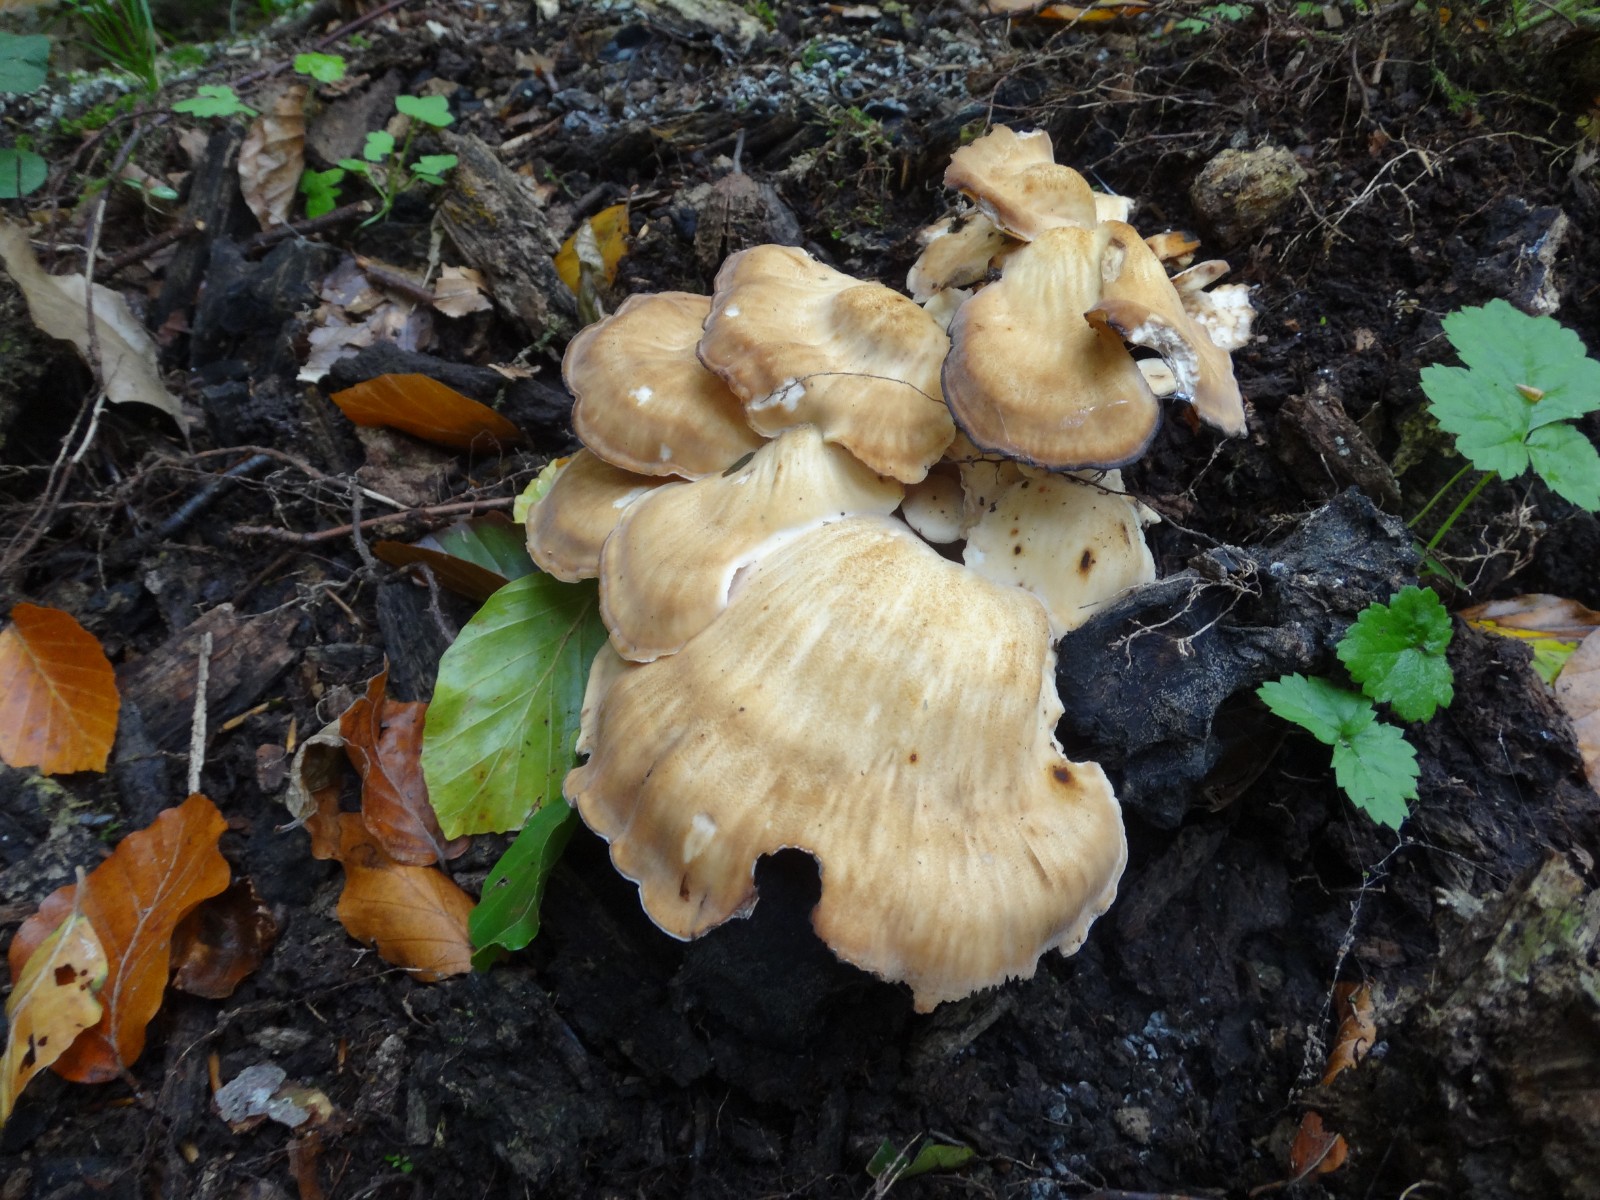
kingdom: Fungi
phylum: Basidiomycota
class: Agaricomycetes
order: Polyporales
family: Meripilaceae
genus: Meripilus
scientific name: Meripilus giganteus
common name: kæmpeporesvamp
